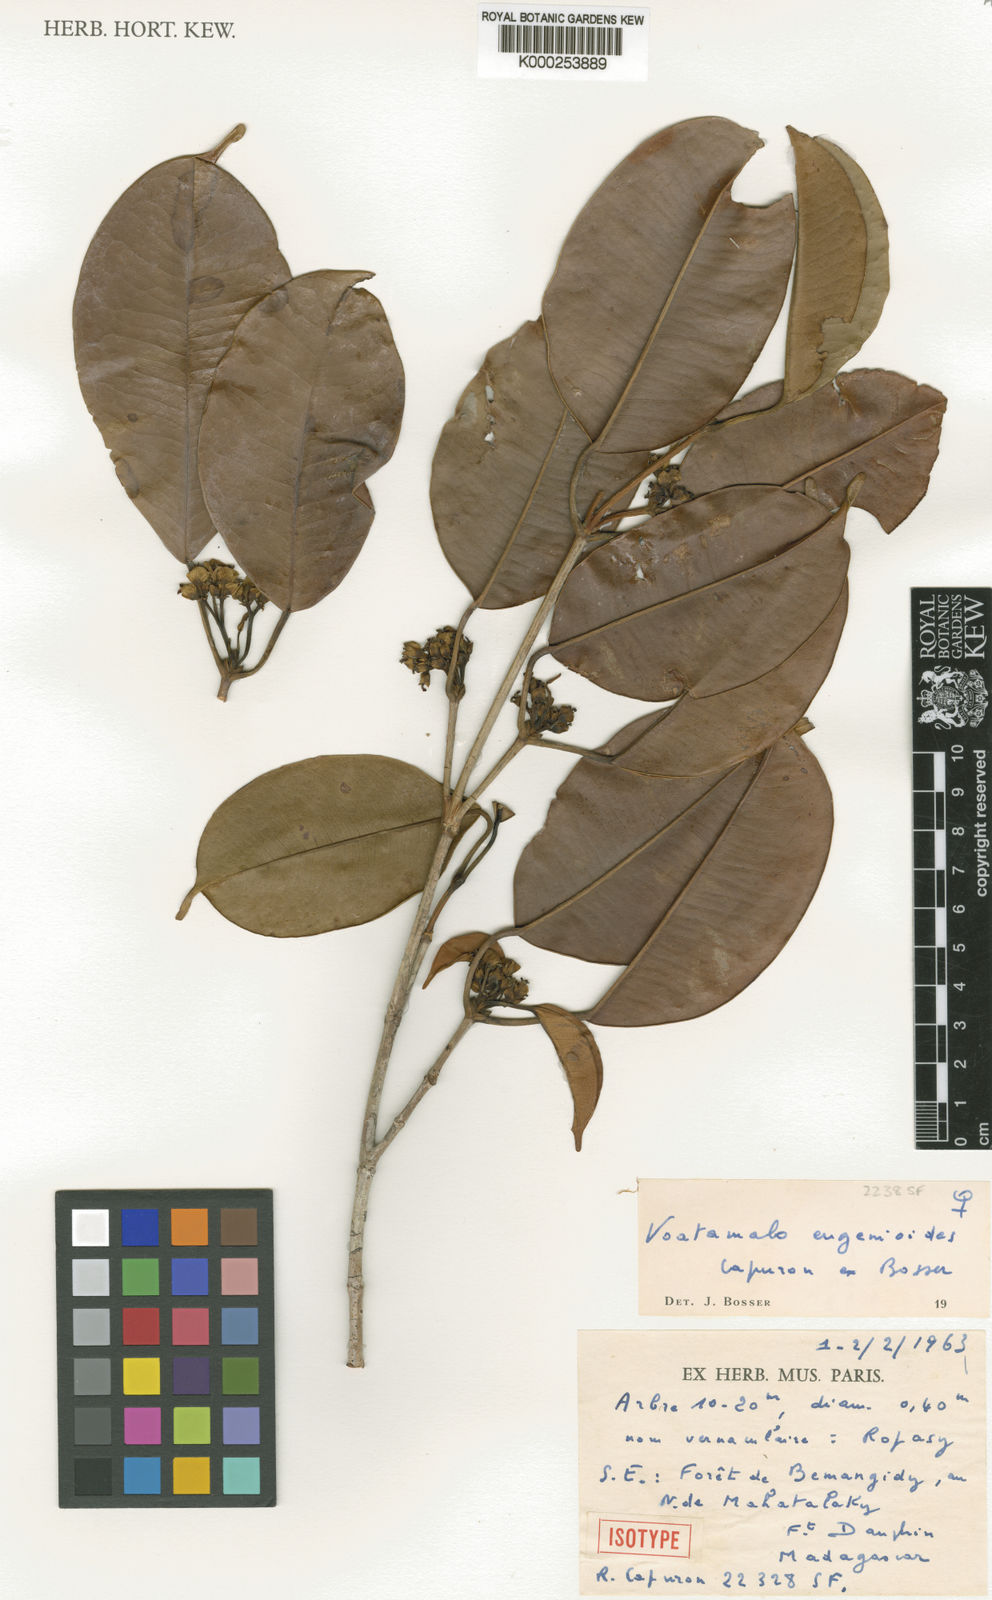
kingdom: Plantae
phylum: Tracheophyta
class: Magnoliopsida
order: Malpighiales
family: Picrodendraceae
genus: Voatamalo
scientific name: Voatamalo eugenioides
